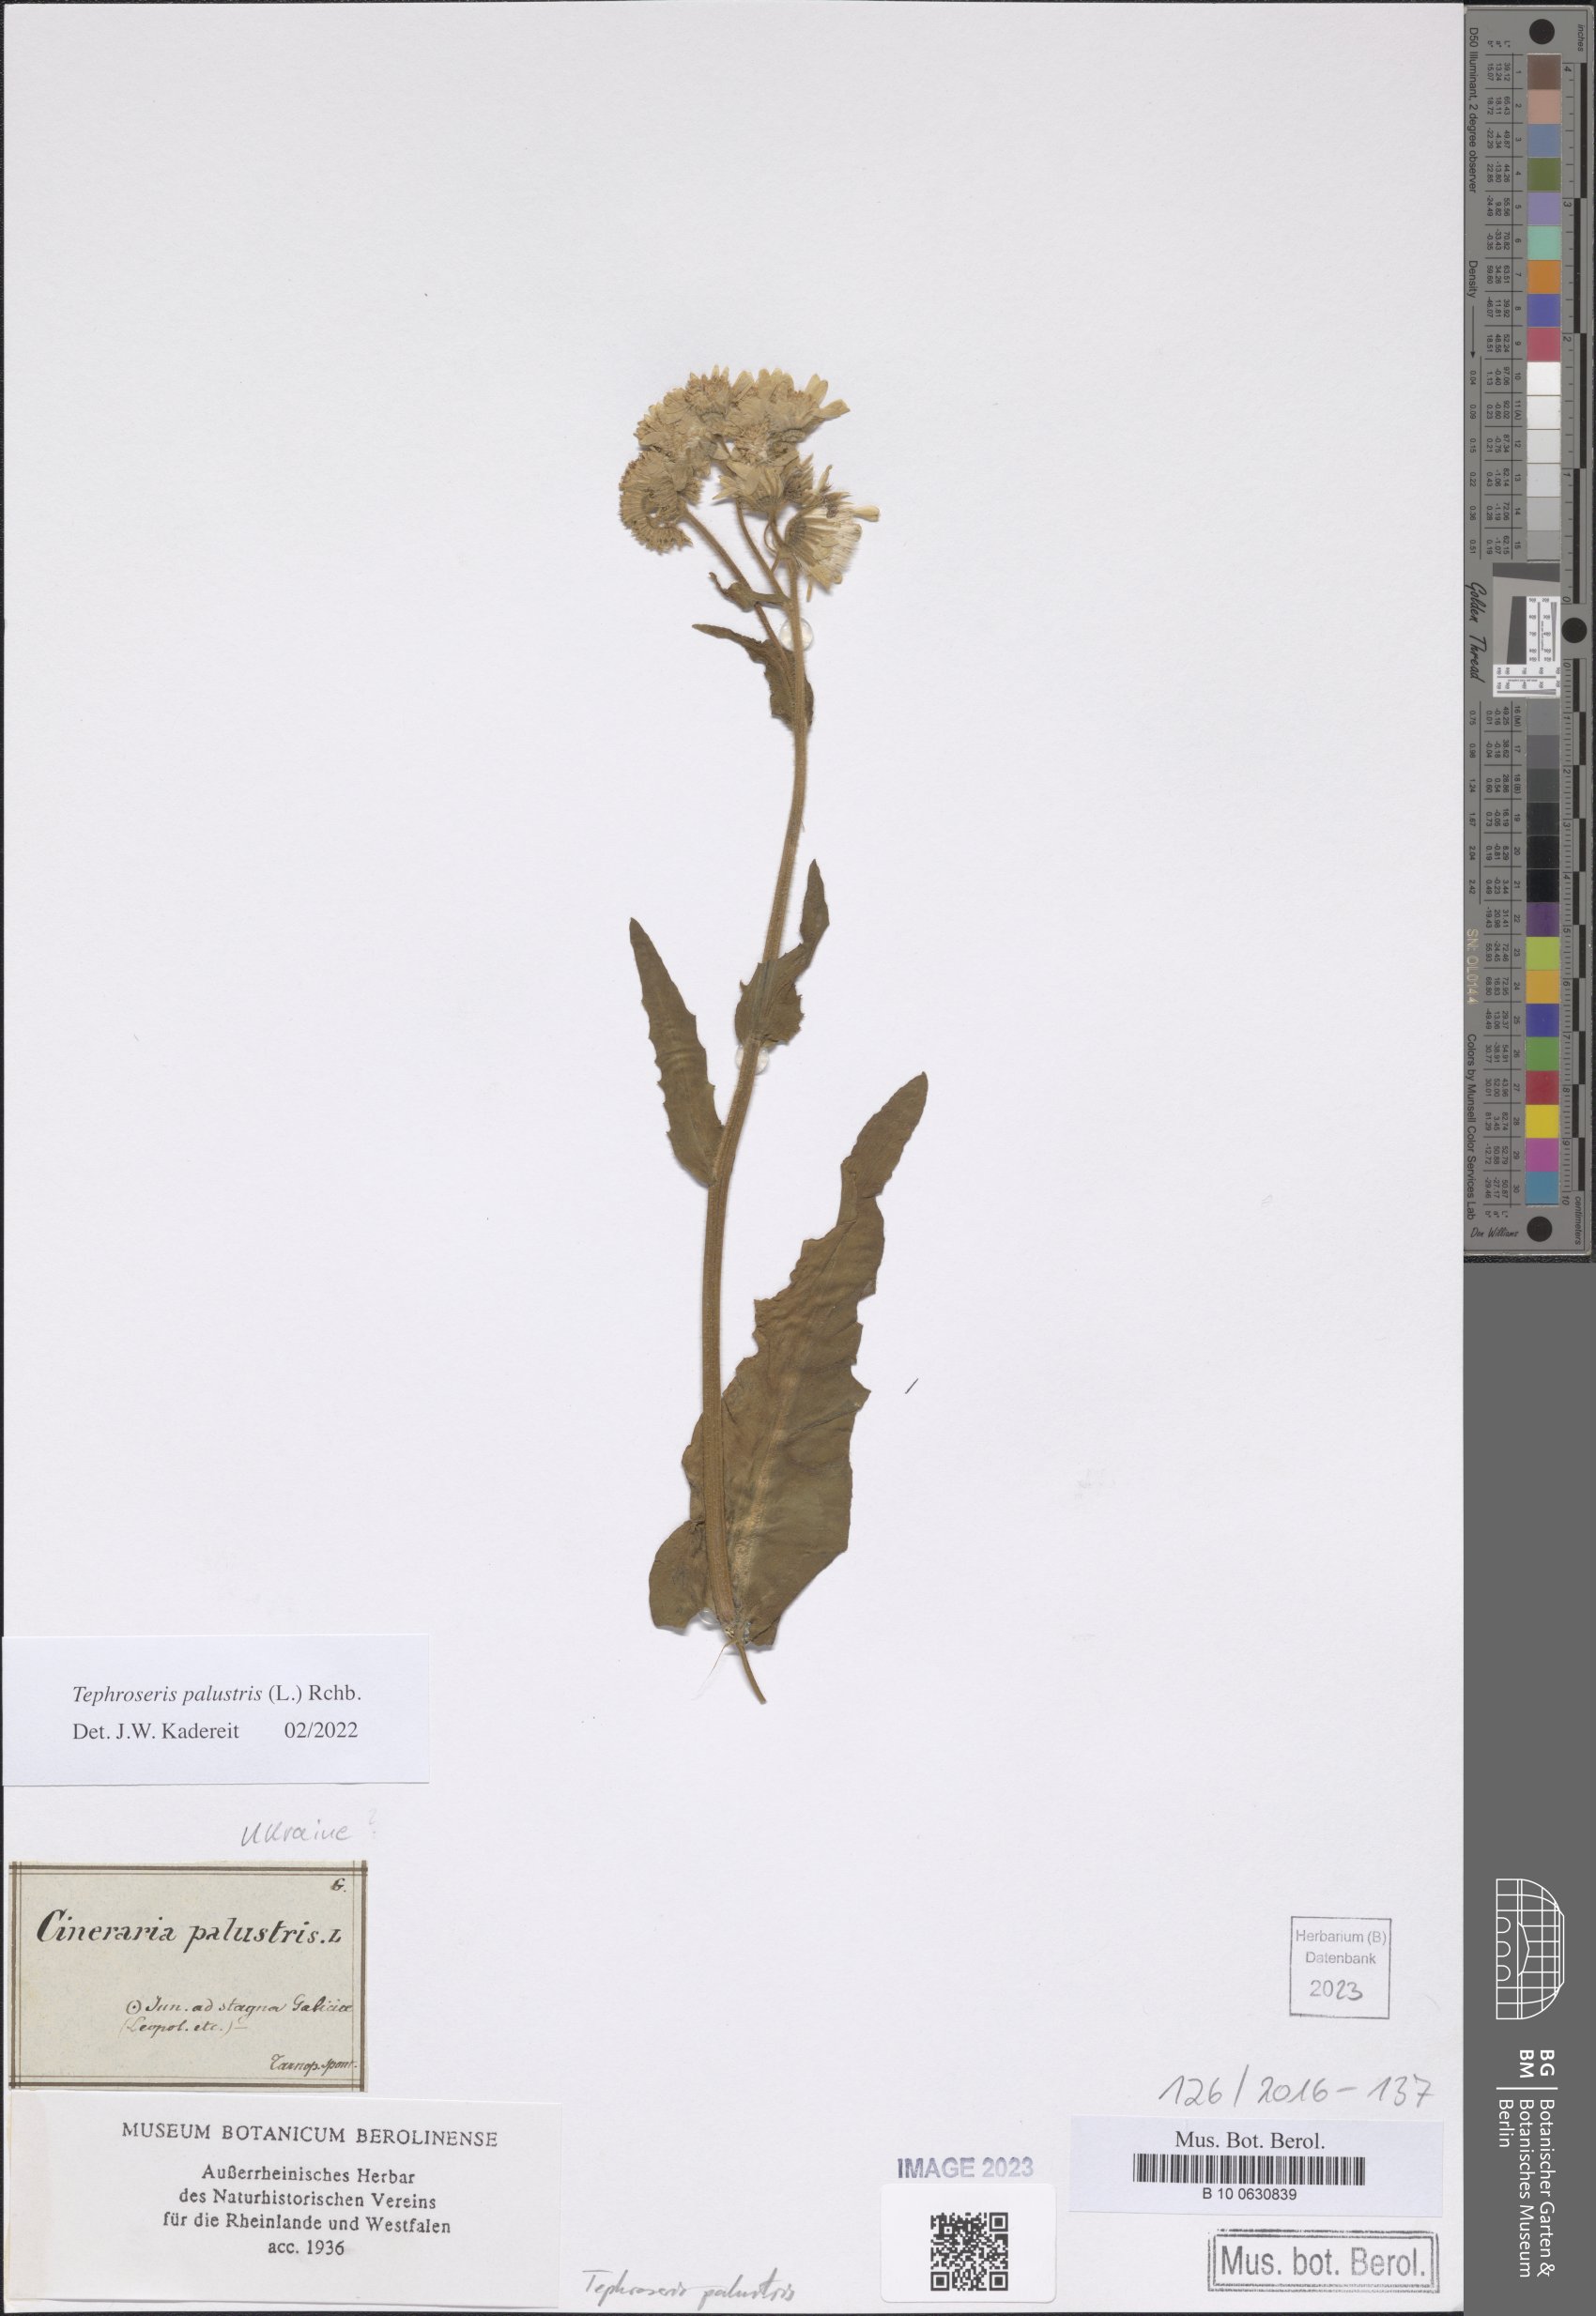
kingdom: Plantae
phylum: Tracheophyta
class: Magnoliopsida
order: Asterales
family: Asteraceae
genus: Tephroseris
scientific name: Tephroseris palustris
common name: Marsh fleawort
